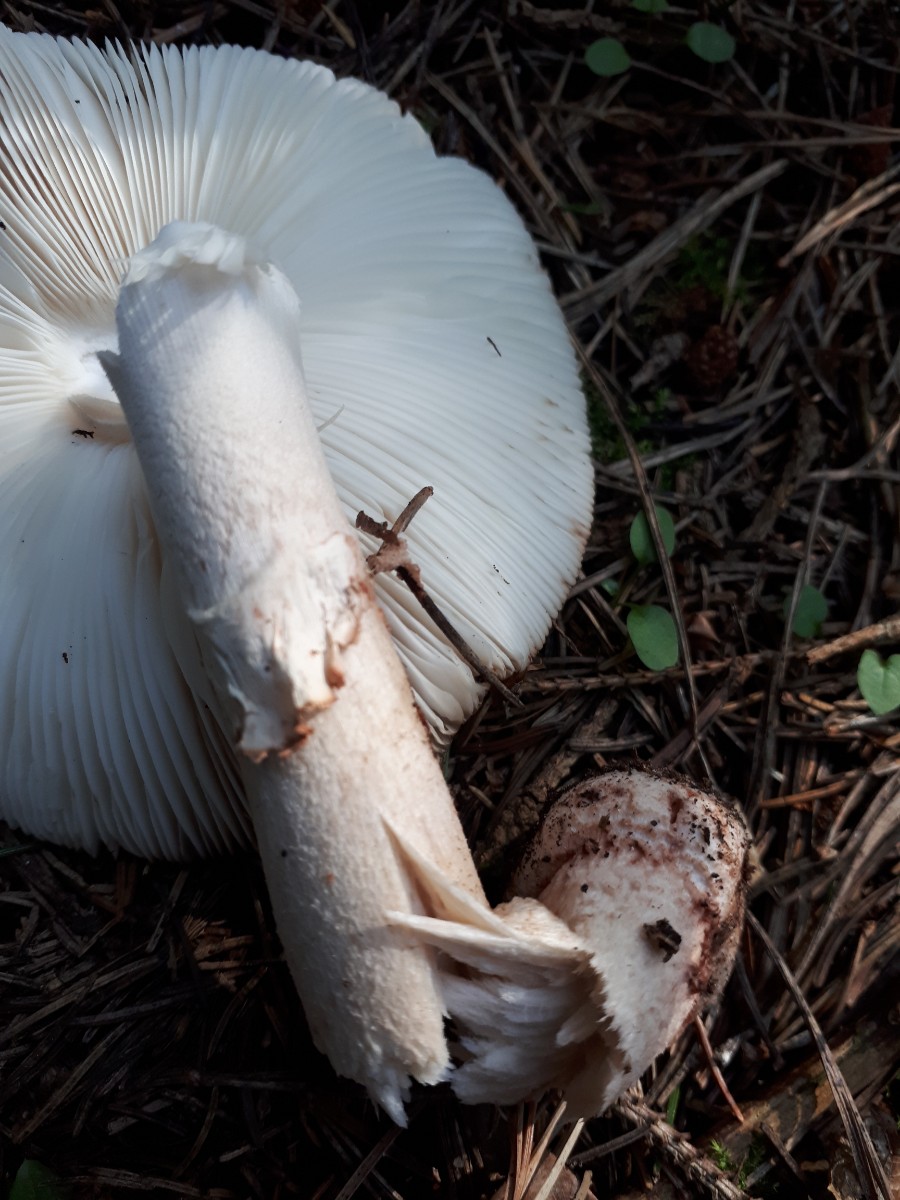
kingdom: Fungi
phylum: Basidiomycota
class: Agaricomycetes
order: Agaricales
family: Amanitaceae
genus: Amanita
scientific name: Amanita rubescens
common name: rødmende fluesvamp
